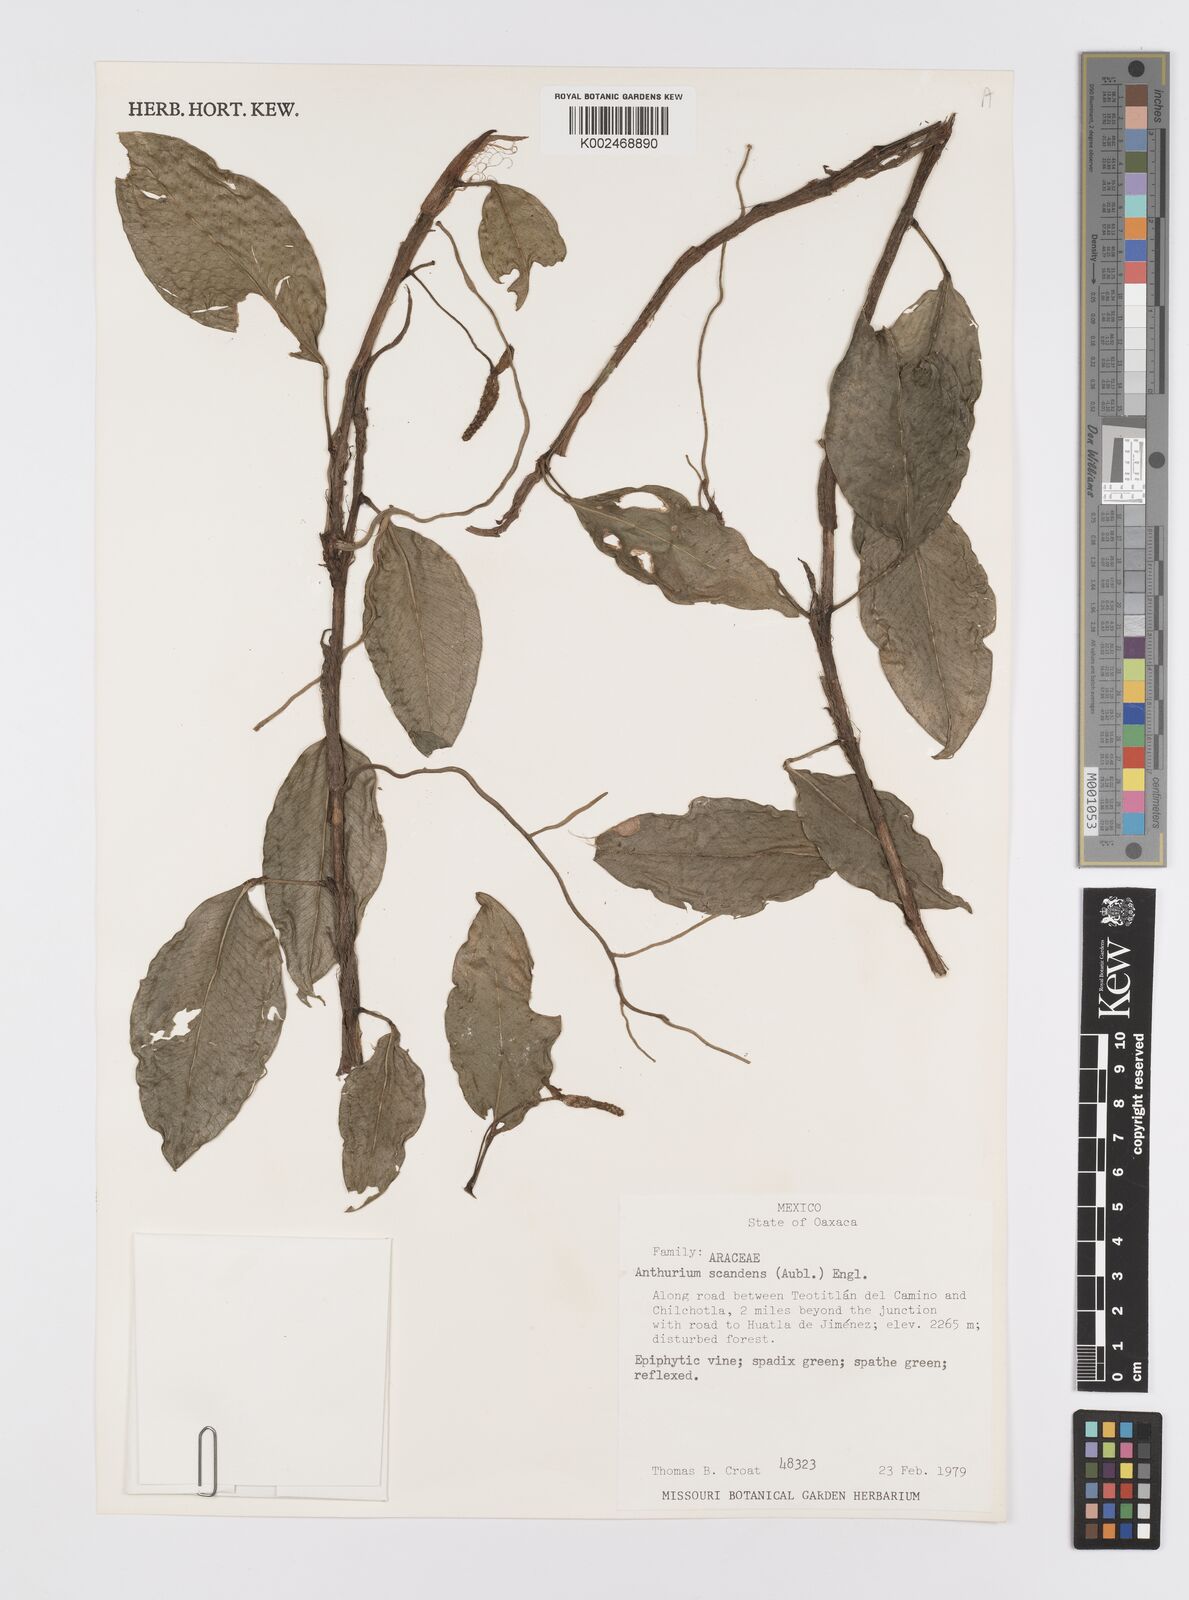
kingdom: Plantae
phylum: Tracheophyta
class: Liliopsida
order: Alismatales
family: Araceae
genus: Anthurium
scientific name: Anthurium scandens
